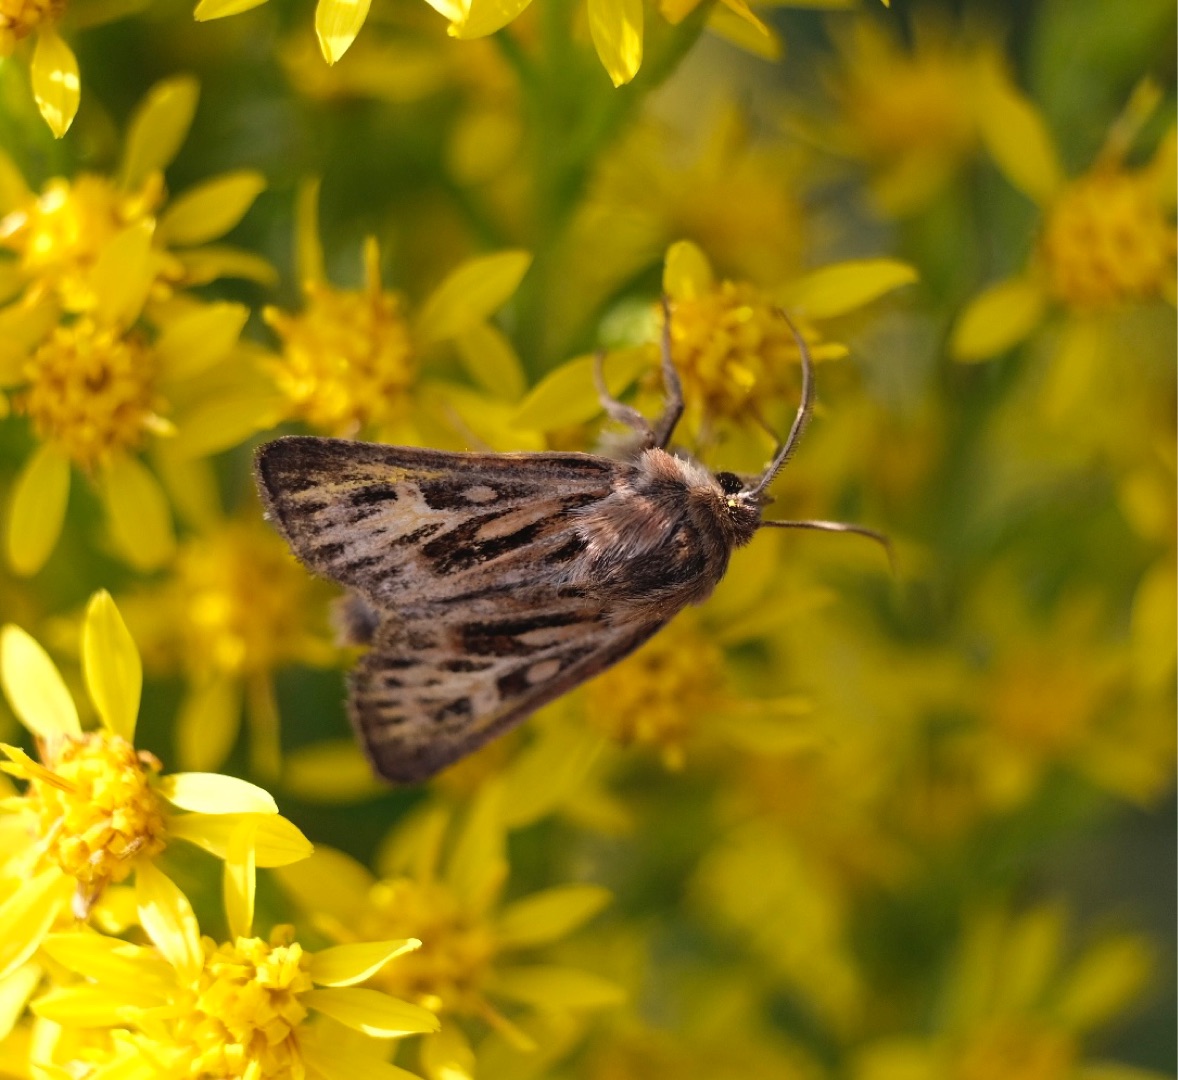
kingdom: Animalia
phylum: Arthropoda
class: Insecta
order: Lepidoptera
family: Noctuidae
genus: Cerapteryx
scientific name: Cerapteryx graminis
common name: Mosebunkeugle
